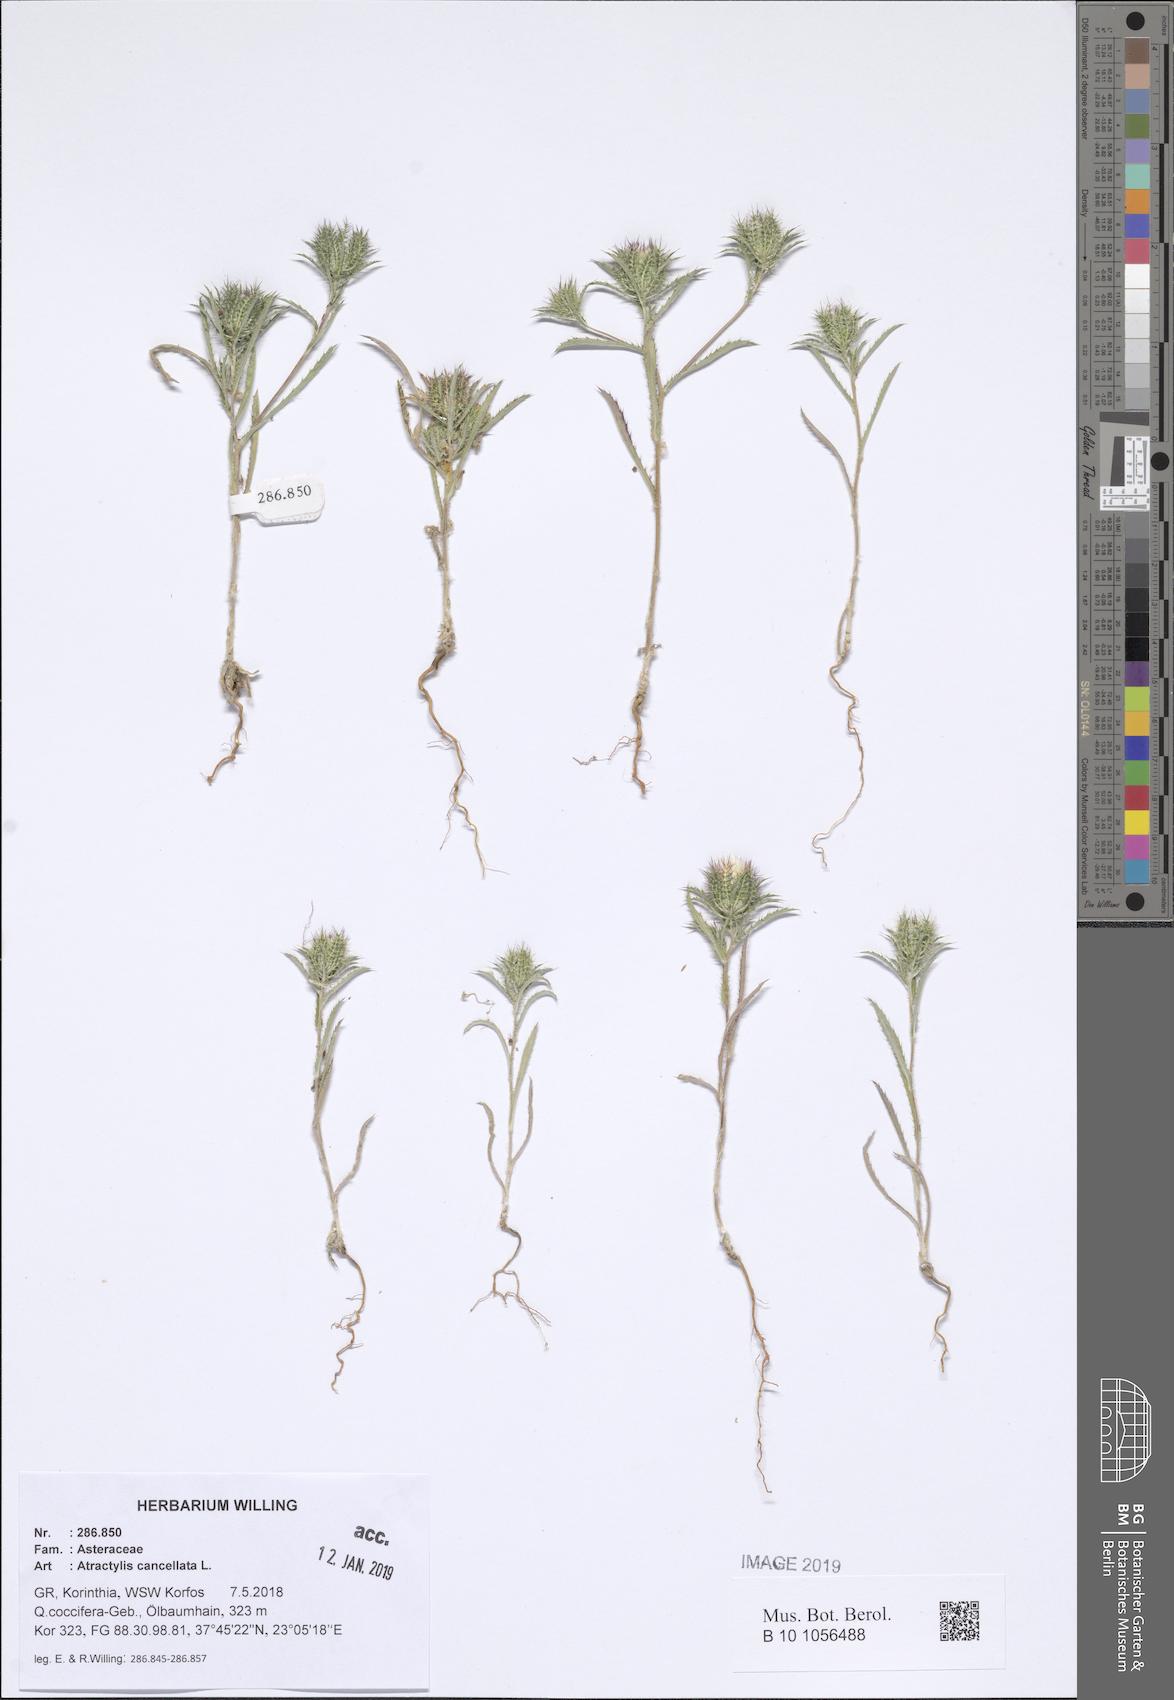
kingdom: Plantae
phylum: Tracheophyta
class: Magnoliopsida
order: Asterales
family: Asteraceae
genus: Atractylis
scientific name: Atractylis cancellata
